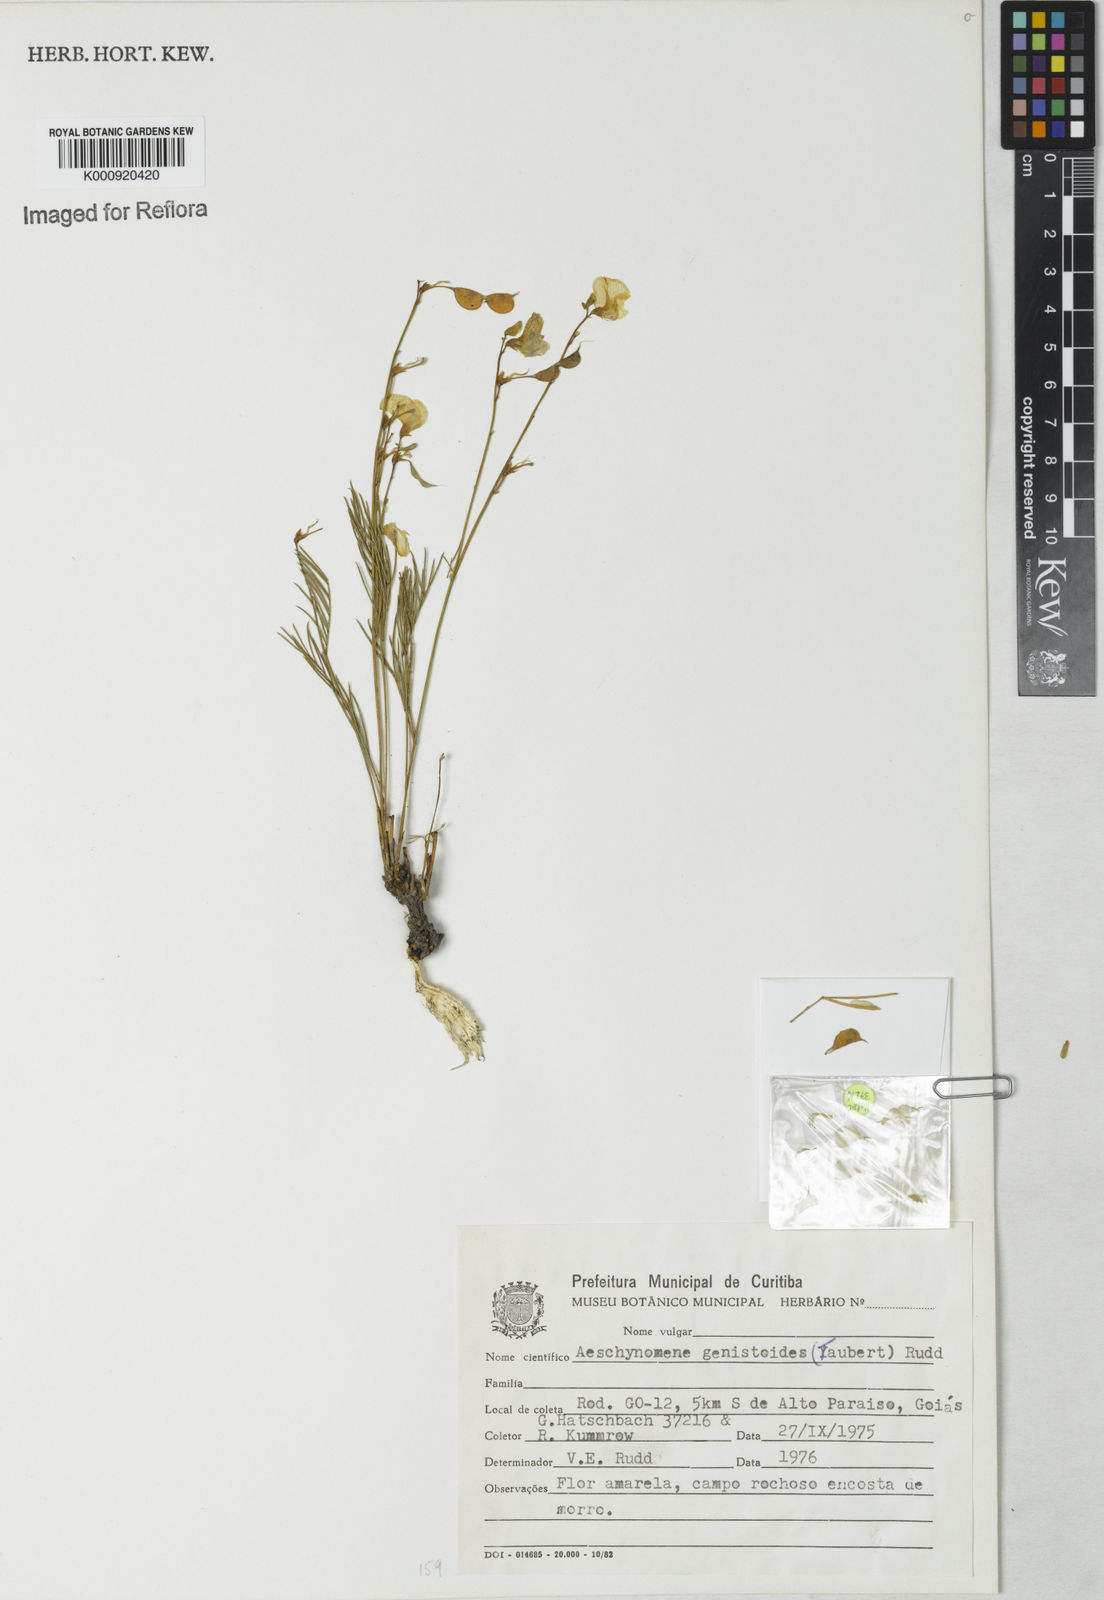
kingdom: Plantae
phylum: Tracheophyta
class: Magnoliopsida
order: Fabales
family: Fabaceae
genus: Ctenodon
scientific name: Ctenodon genistoides
